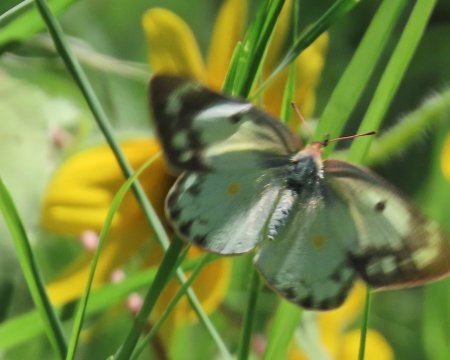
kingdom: Animalia
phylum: Arthropoda
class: Insecta
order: Lepidoptera
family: Pieridae
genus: Colias
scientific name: Colias eurytheme
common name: Orange Sulphur
